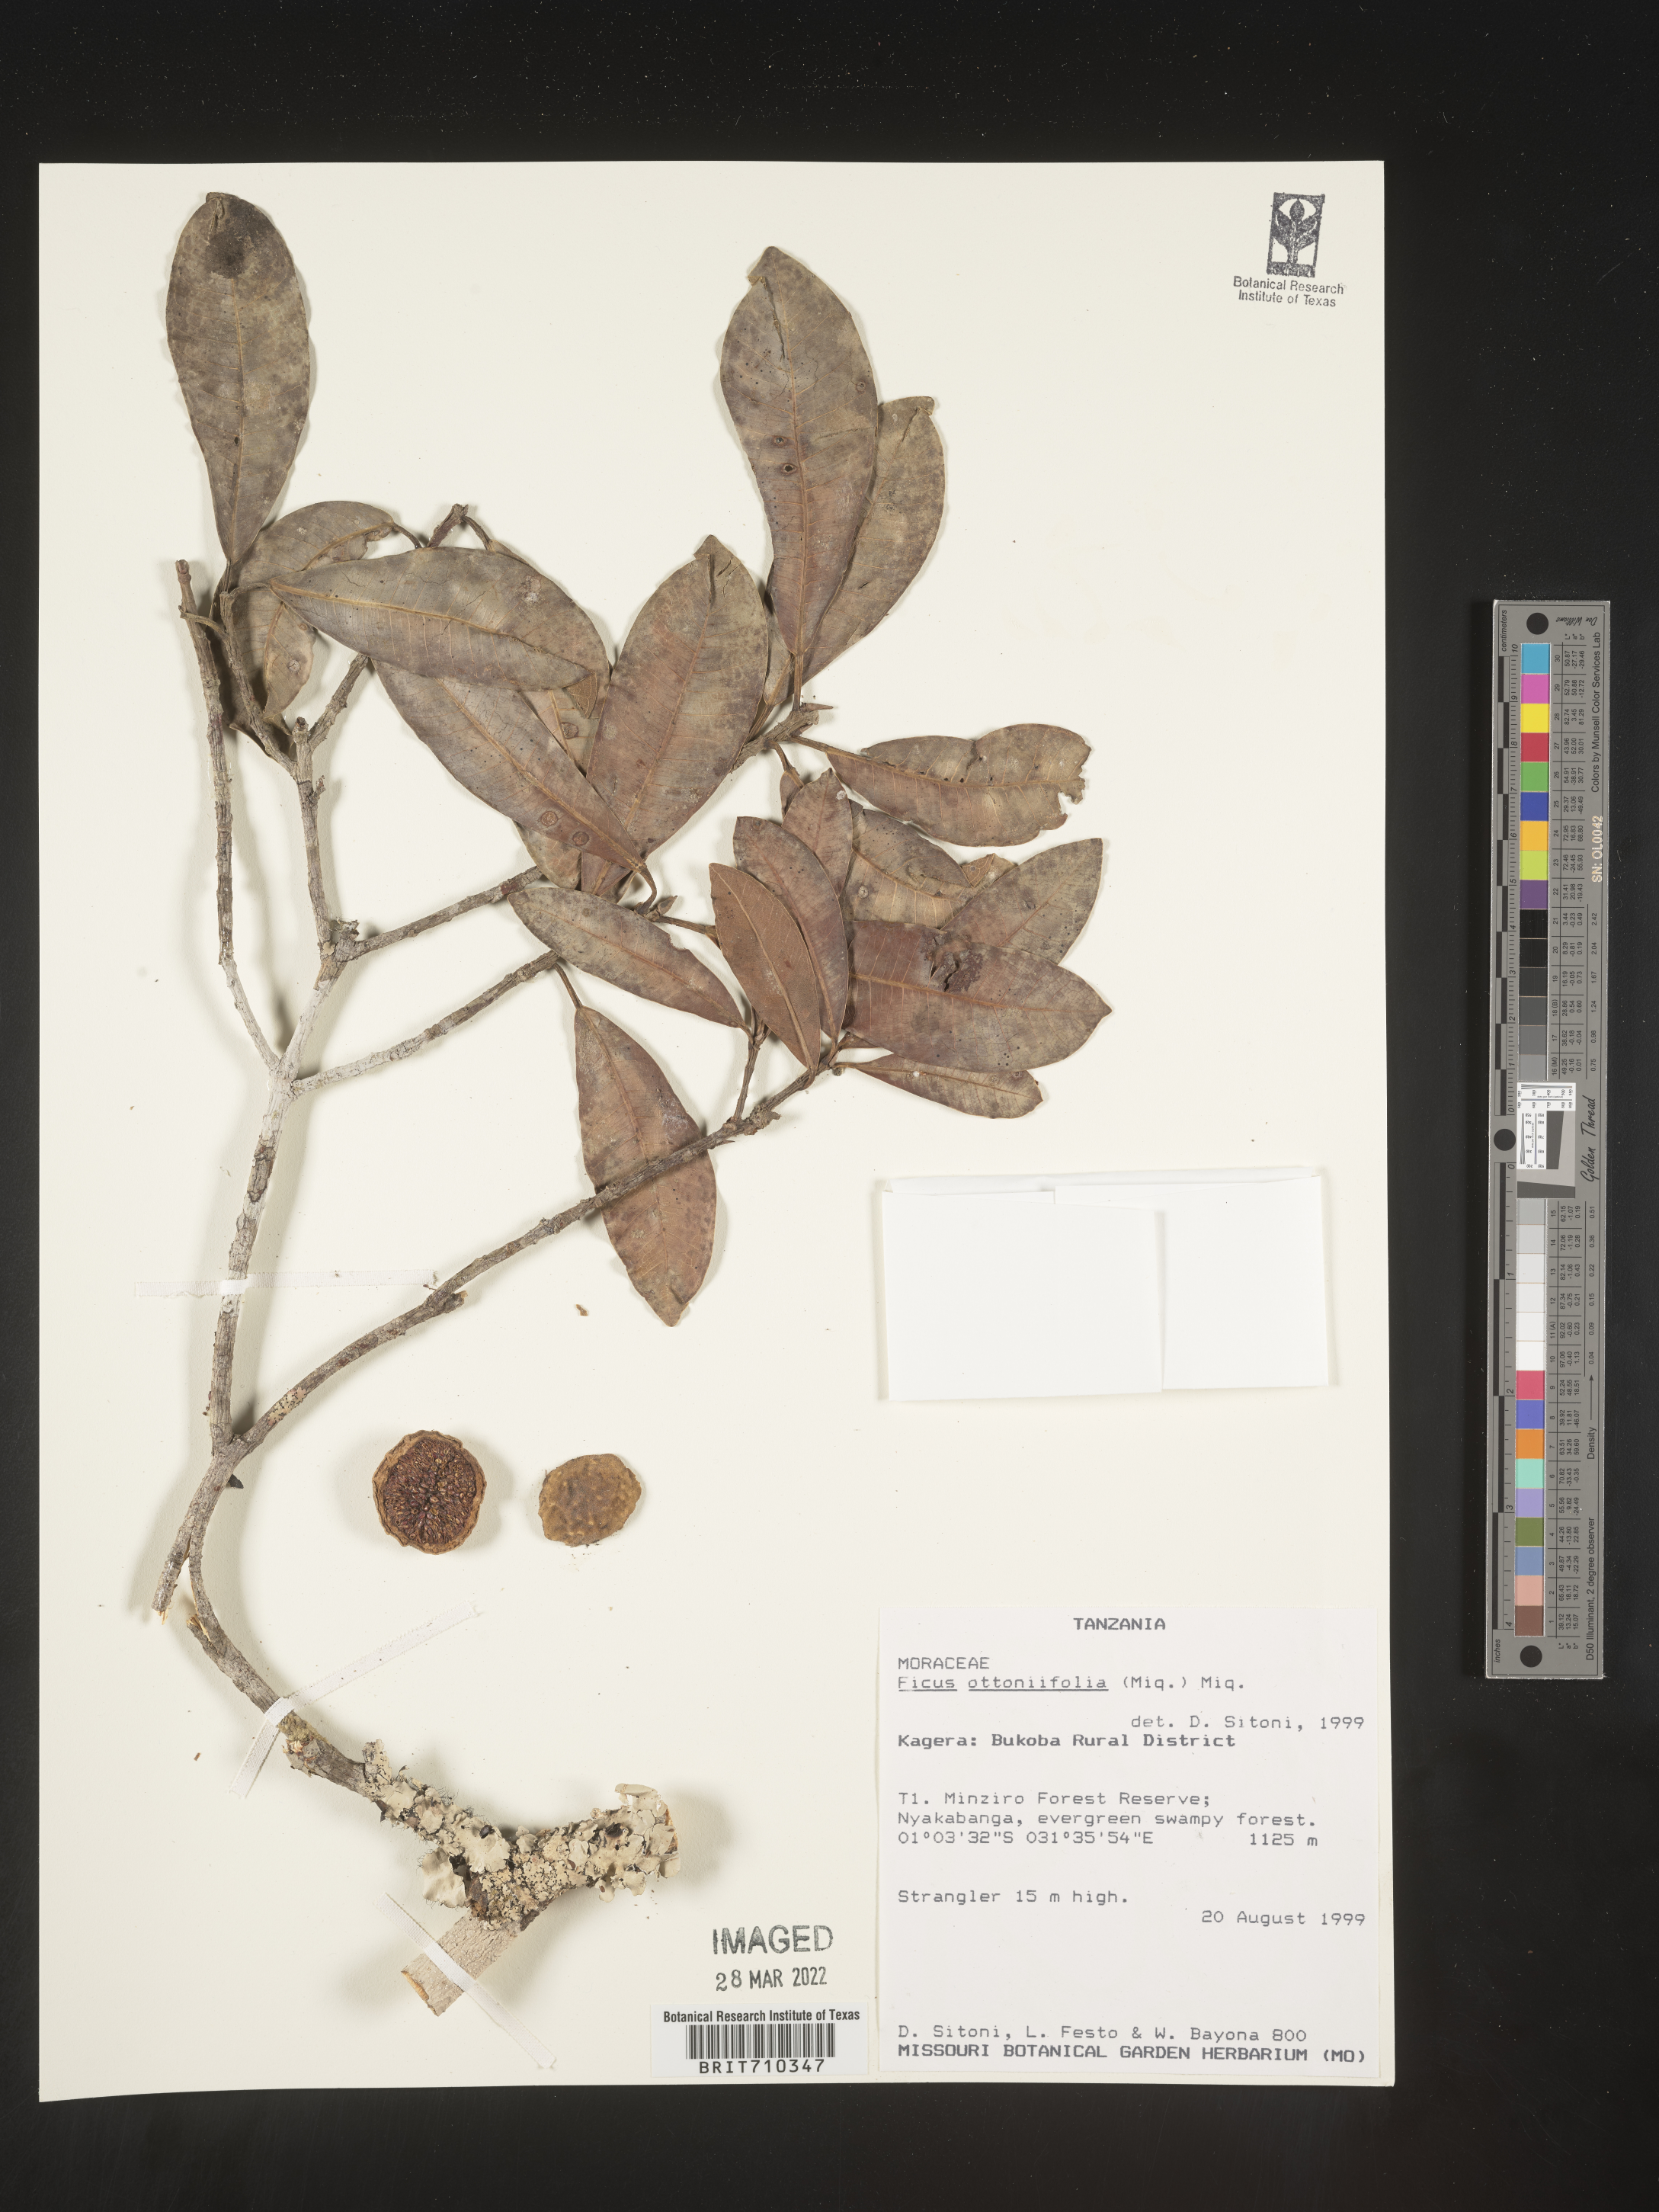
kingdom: Plantae
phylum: Tracheophyta
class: Magnoliopsida
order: Rosales
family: Moraceae
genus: Ficus
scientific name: Ficus
